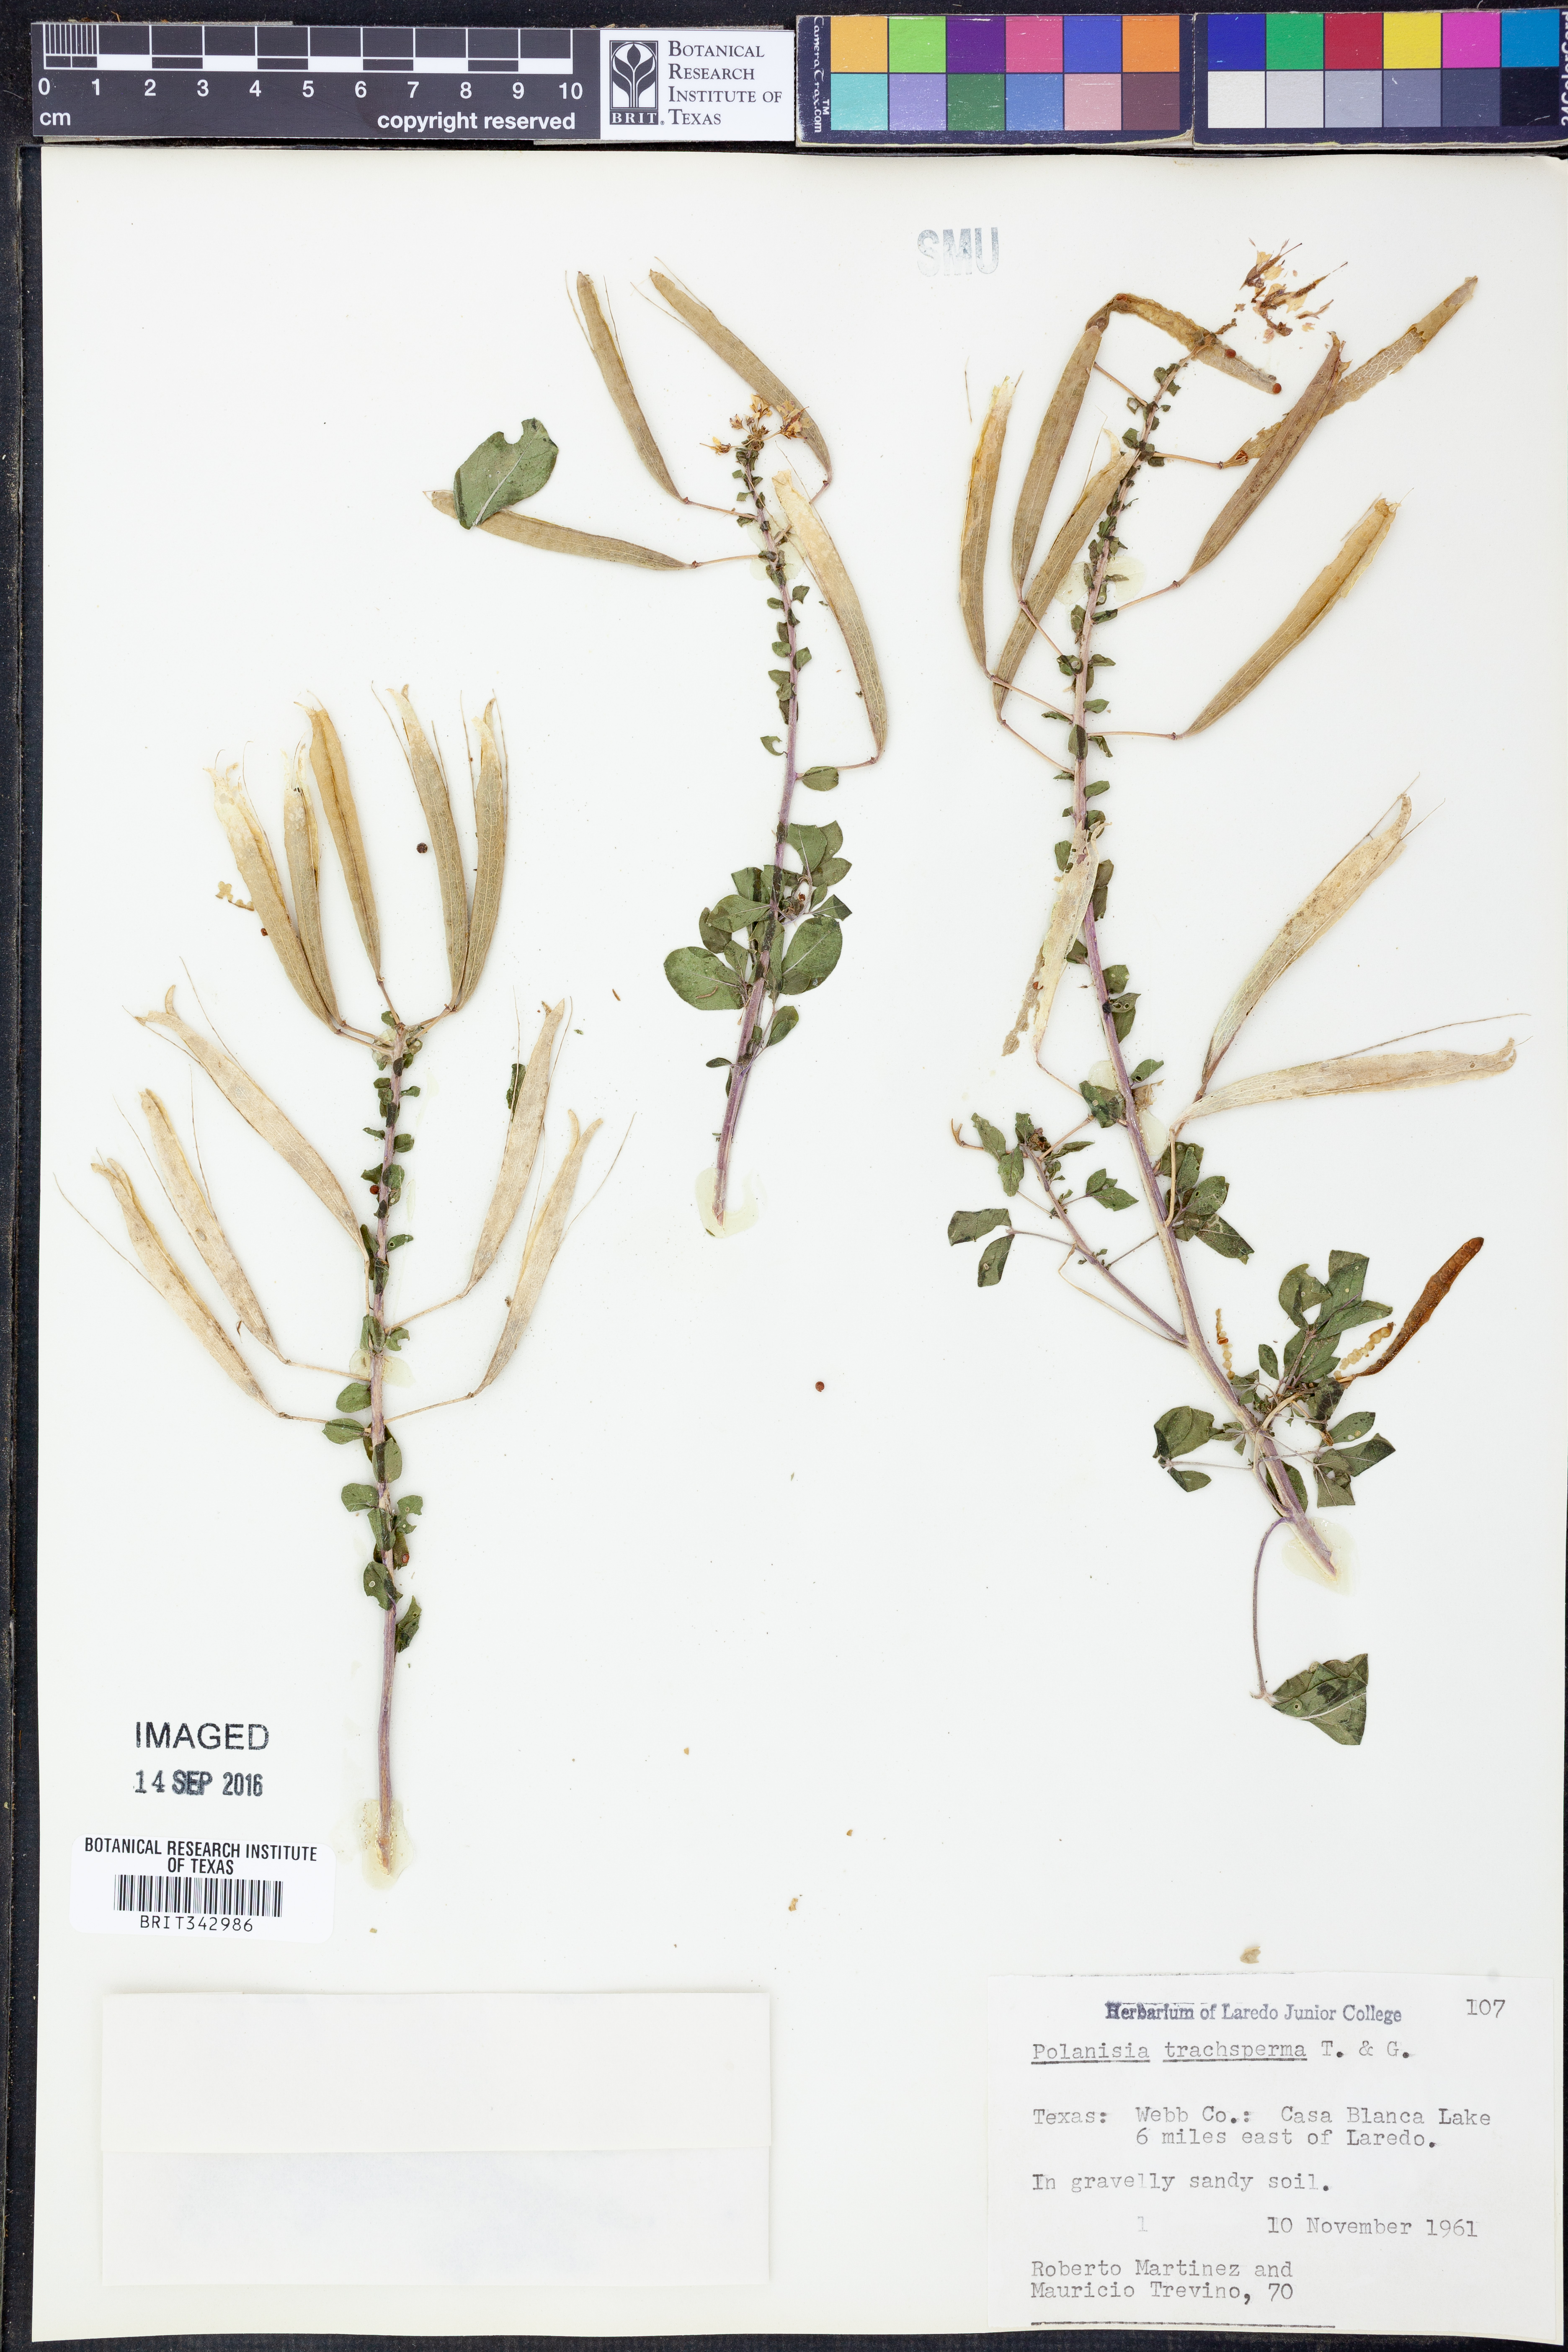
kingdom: Plantae
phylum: Tracheophyta
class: Magnoliopsida
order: Brassicales
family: Cleomaceae
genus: Polanisia
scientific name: Polanisia trachysperma
